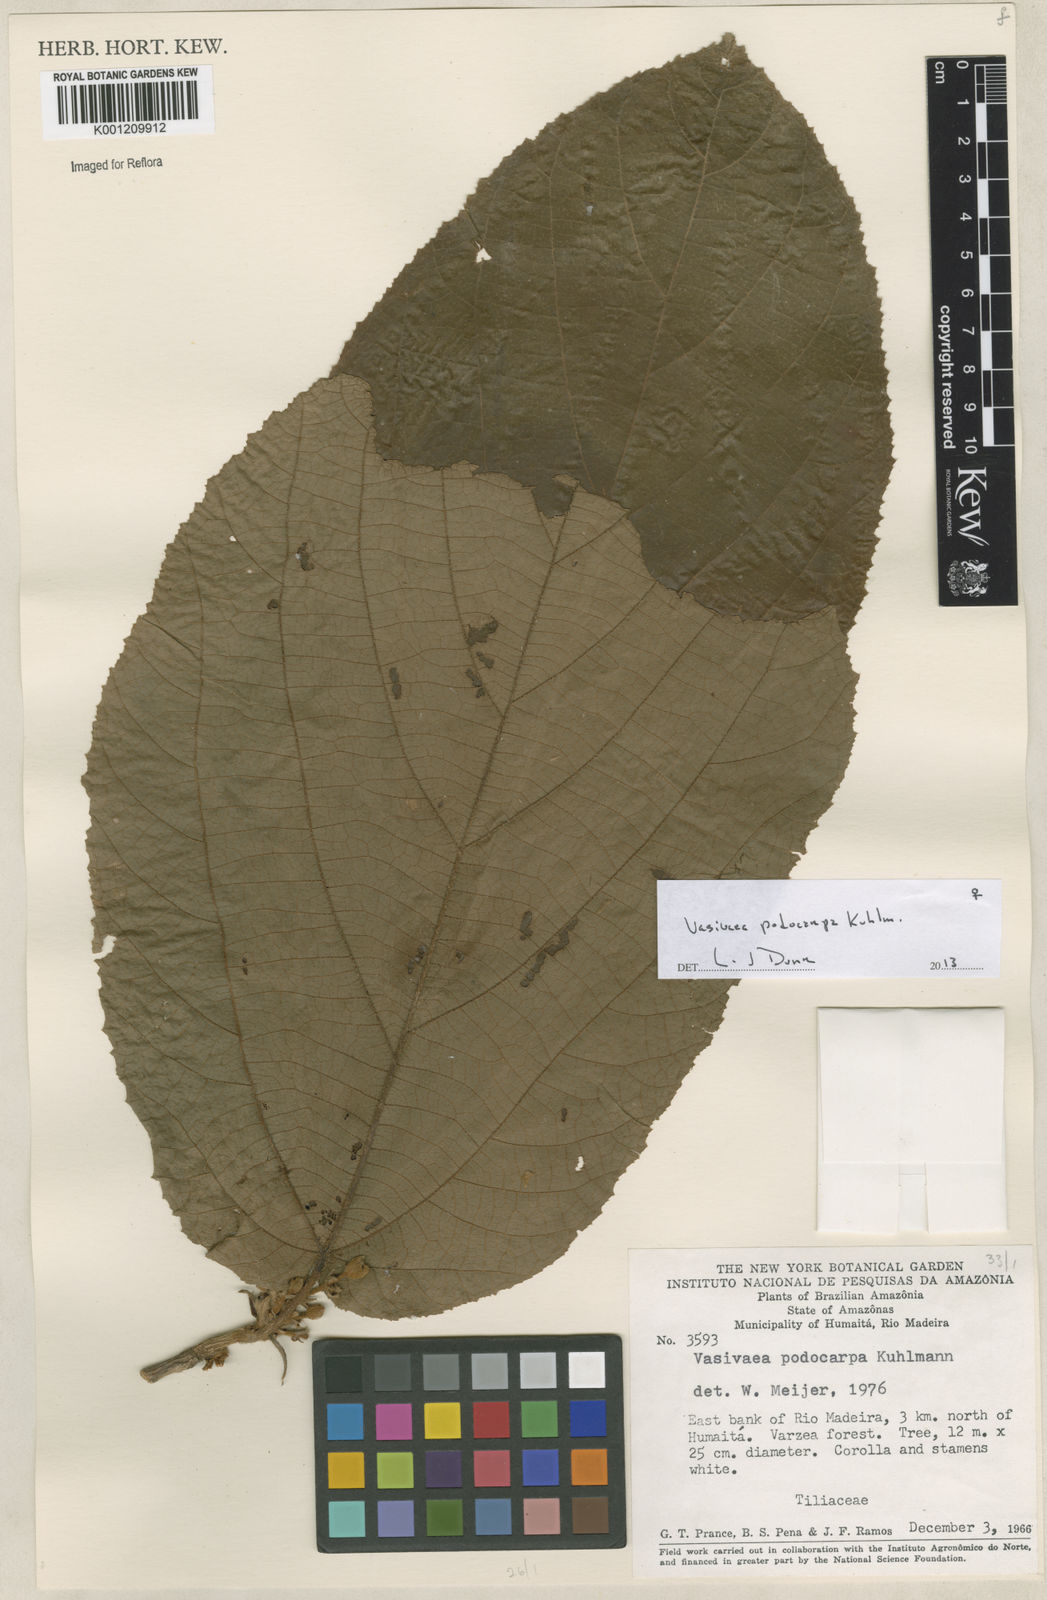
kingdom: Plantae
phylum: Tracheophyta
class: Magnoliopsida
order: Malvales
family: Malvaceae
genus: Vasivaea
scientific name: Vasivaea podocarpa
